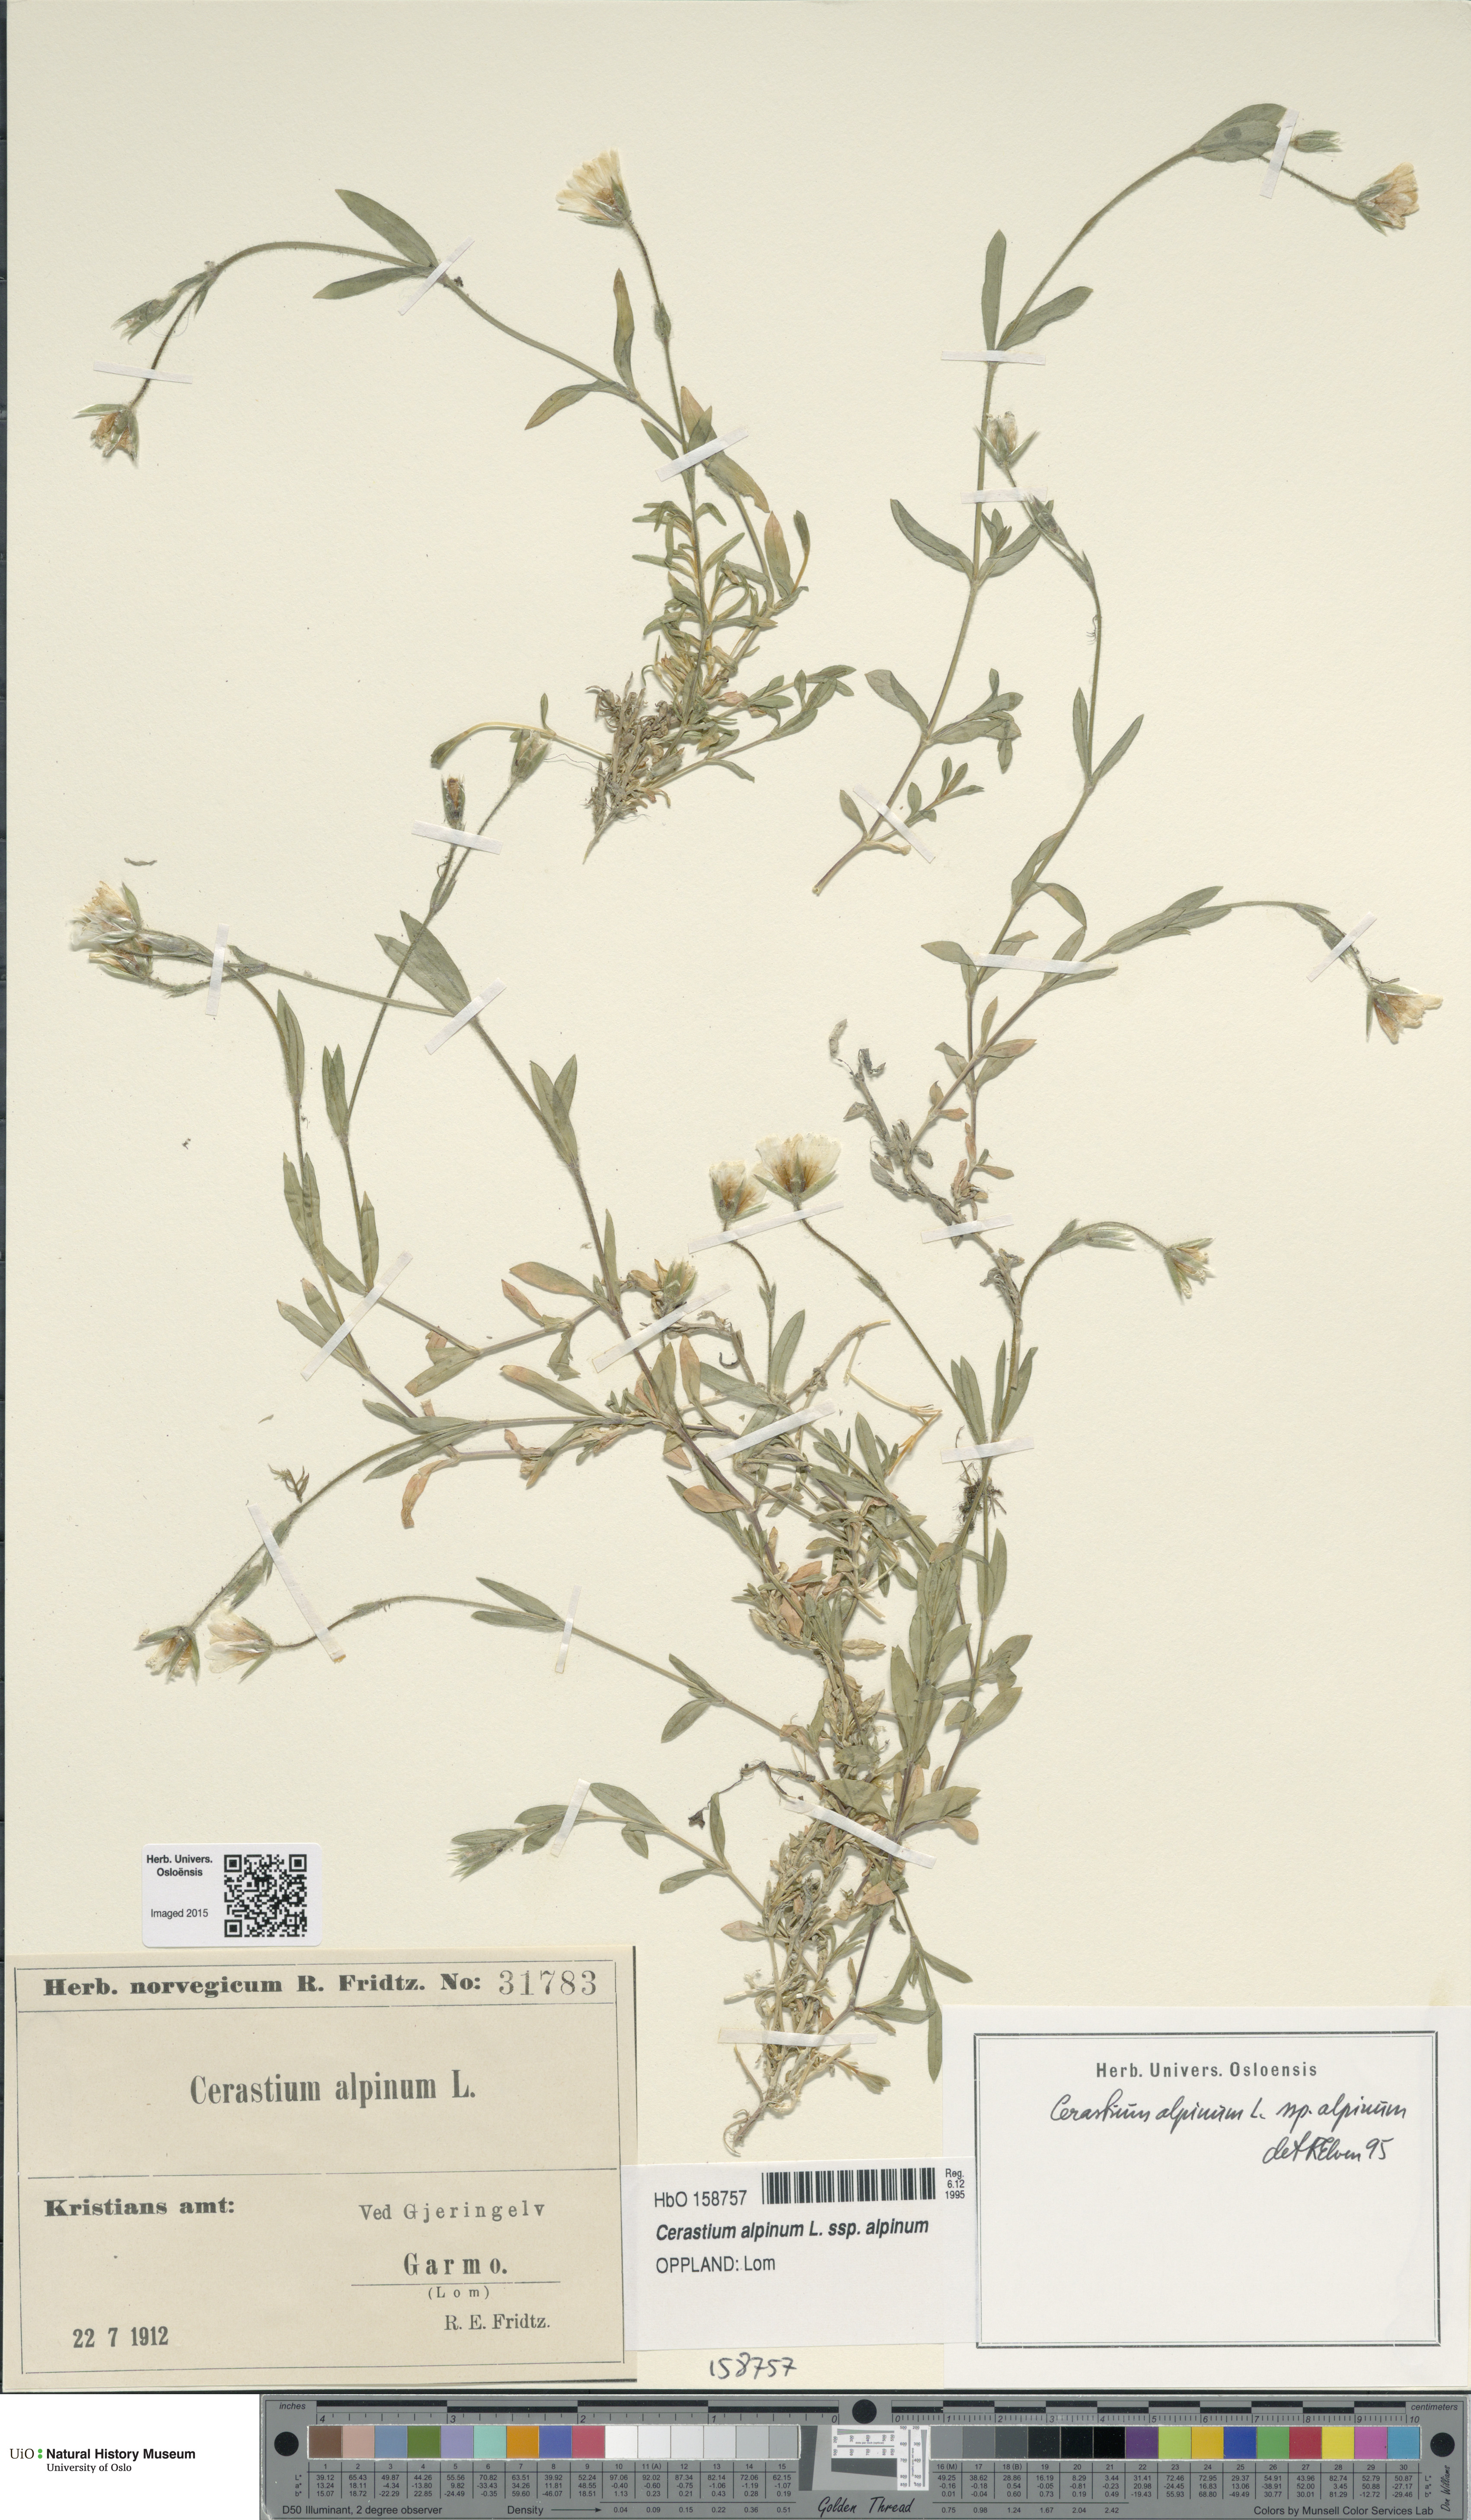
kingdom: Plantae
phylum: Tracheophyta
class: Magnoliopsida
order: Caryophyllales
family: Caryophyllaceae
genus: Cerastium
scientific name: Cerastium alpinum
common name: Alpine mouse-ear
